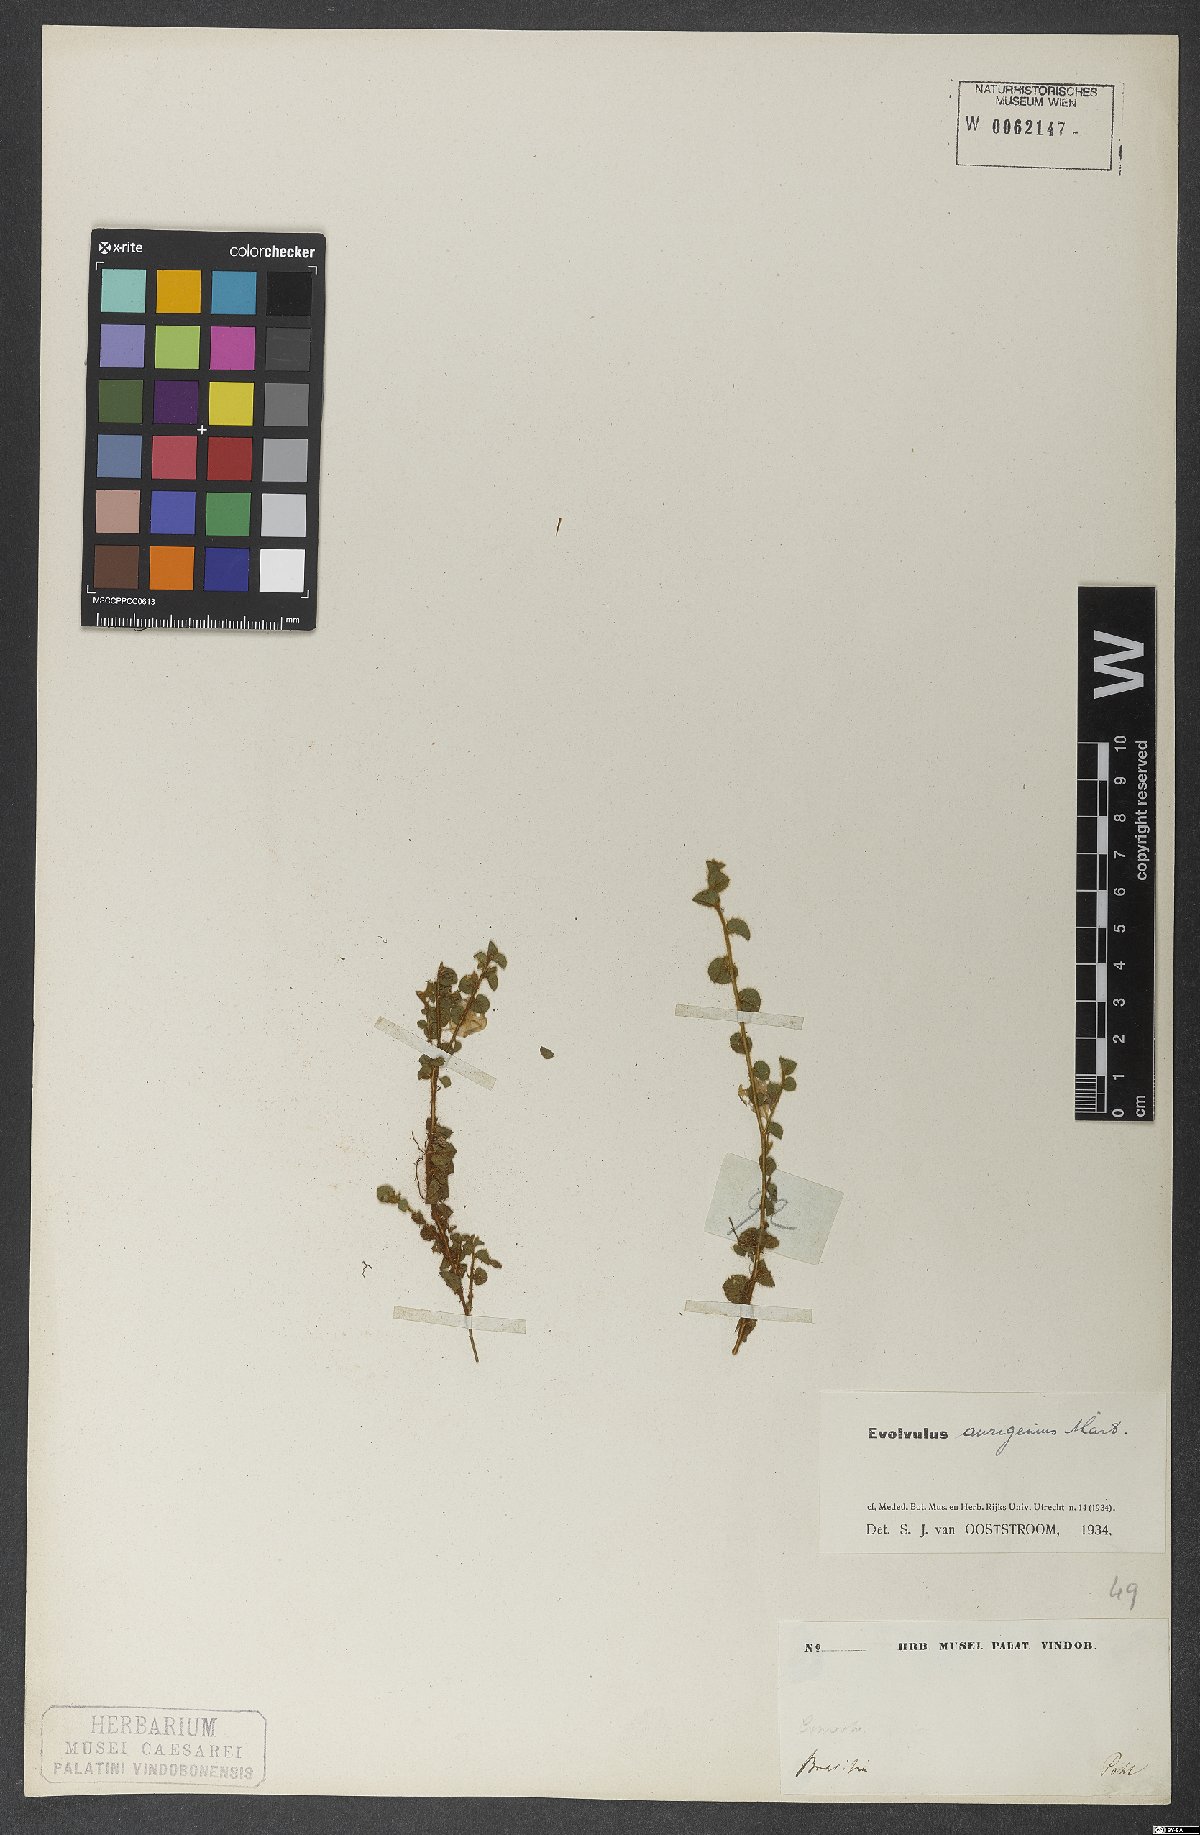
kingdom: Plantae
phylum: Tracheophyta
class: Magnoliopsida
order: Solanales
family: Convolvulaceae
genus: Evolvulus
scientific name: Evolvulus aurigenius
